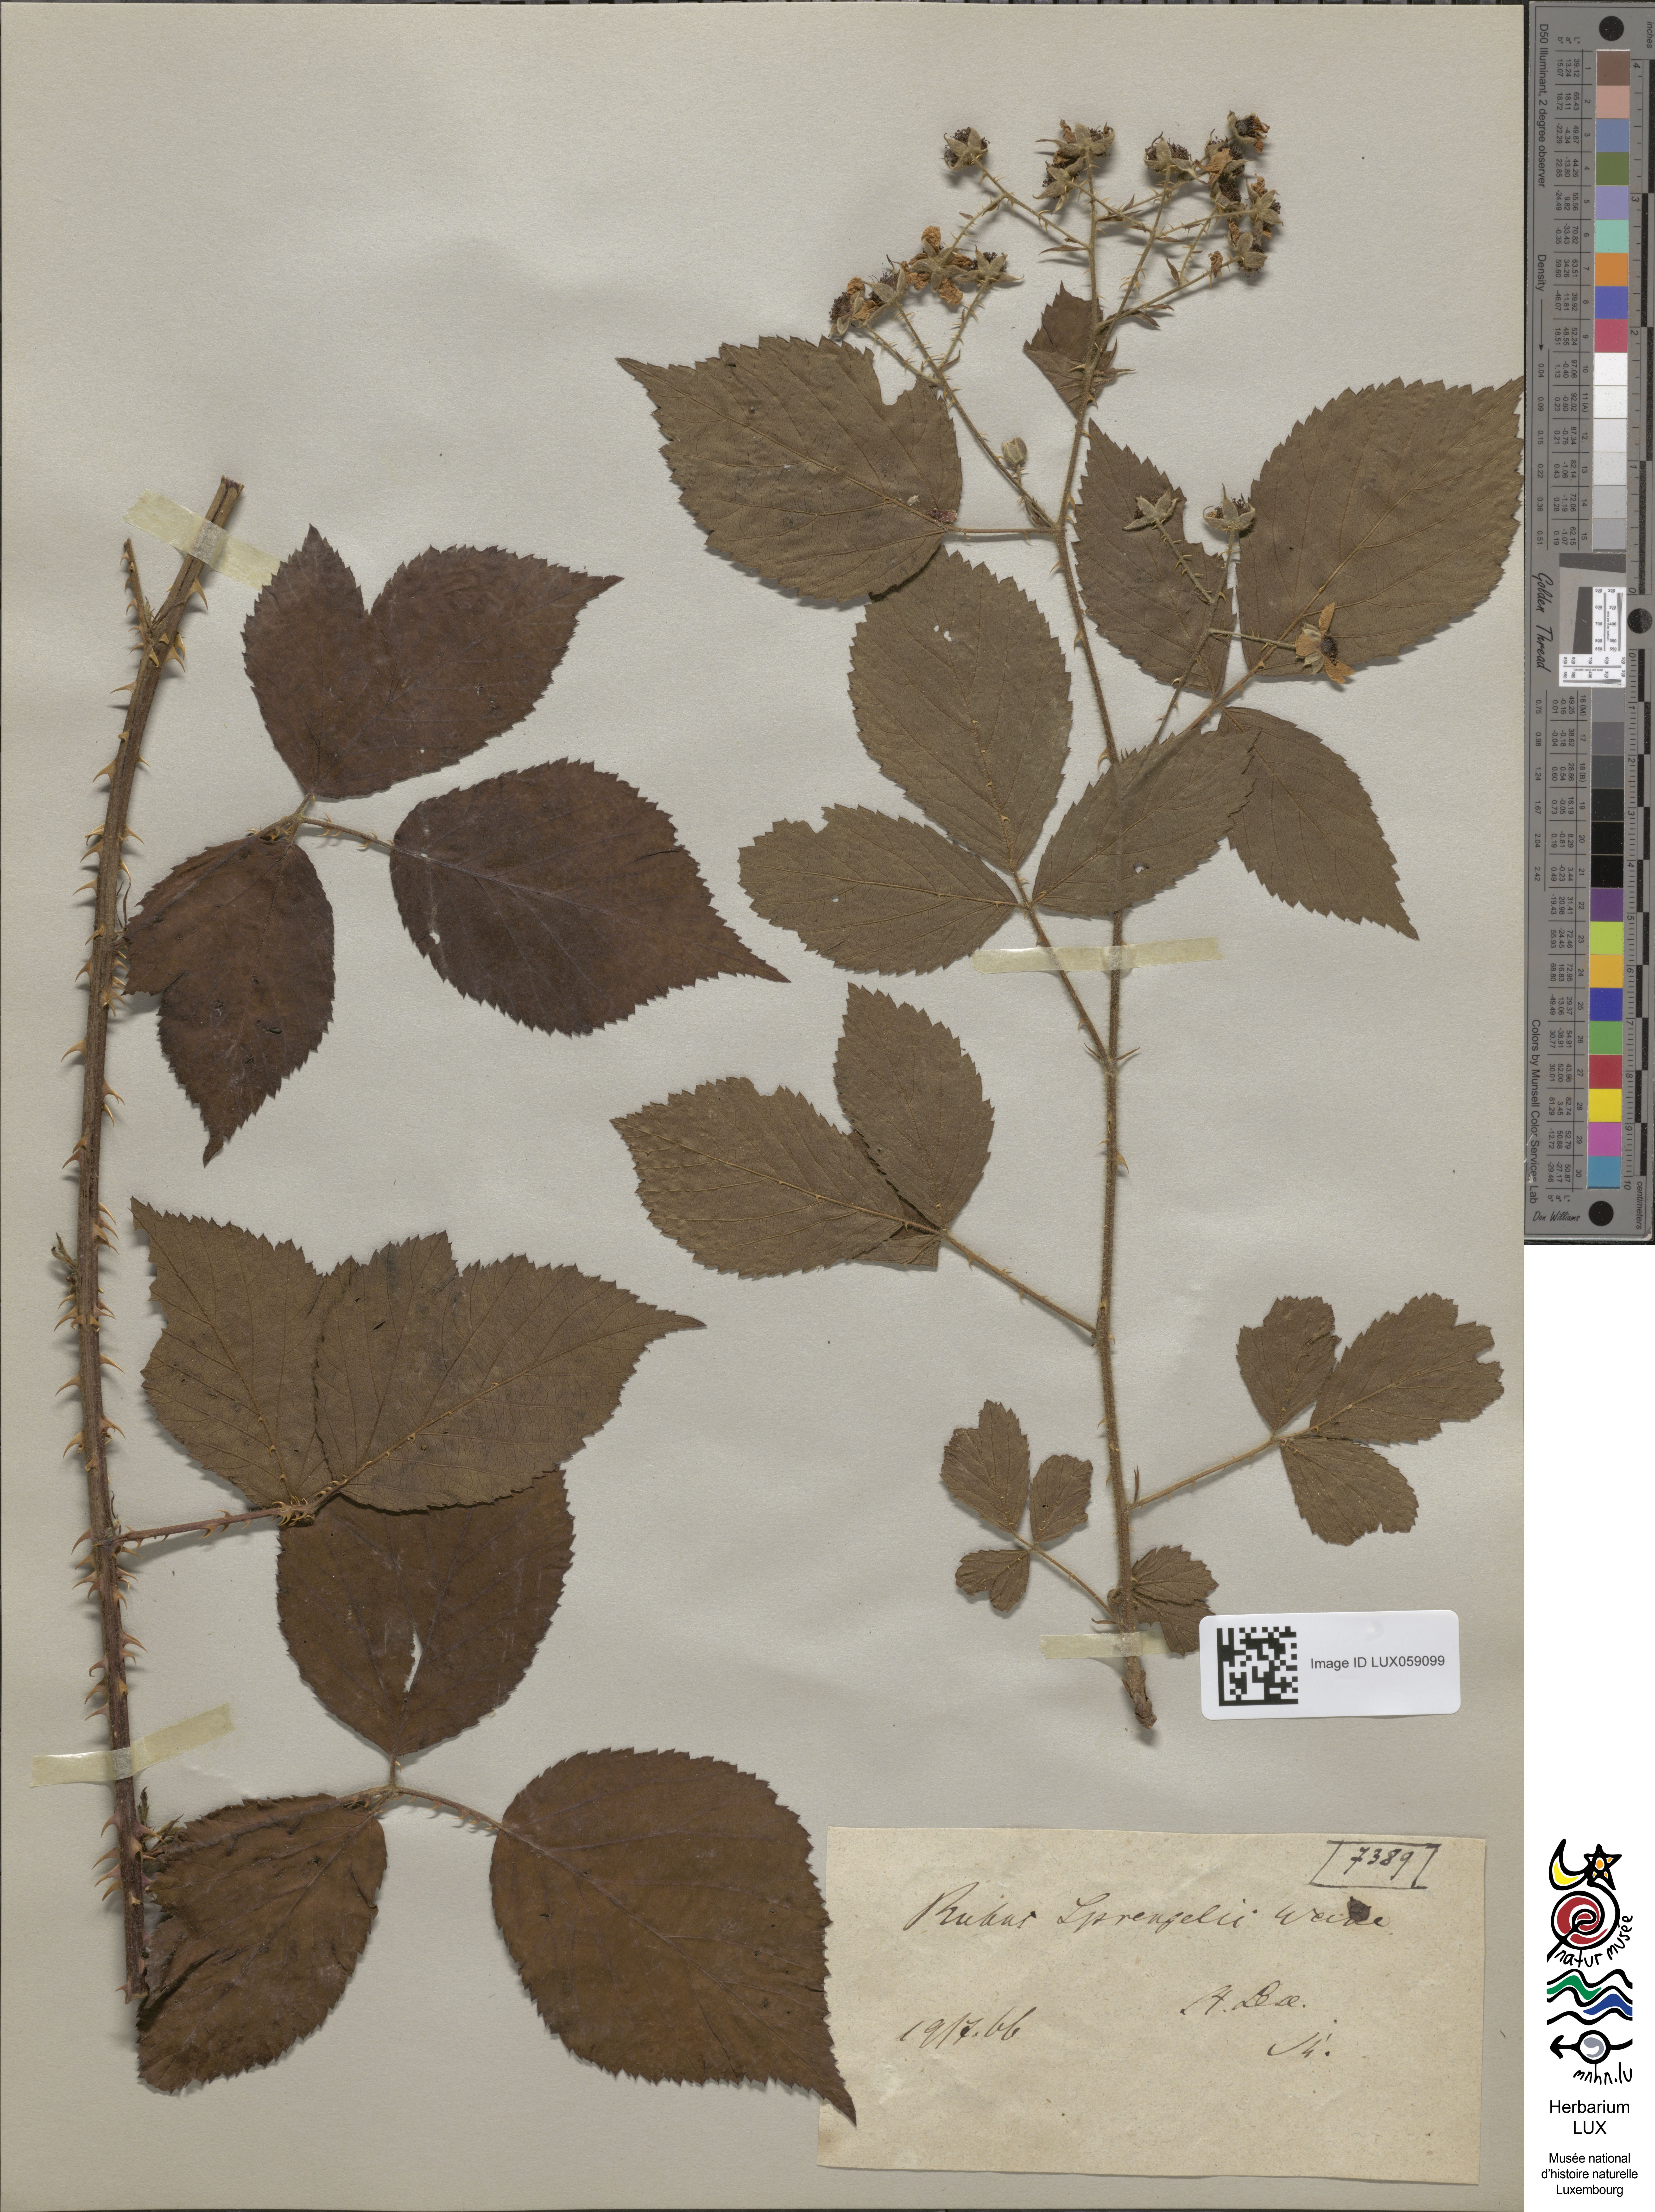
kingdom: Plantae
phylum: Tracheophyta
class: Magnoliopsida
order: Rosales
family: Rosaceae
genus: Rubus
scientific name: Rubus sprengelii
